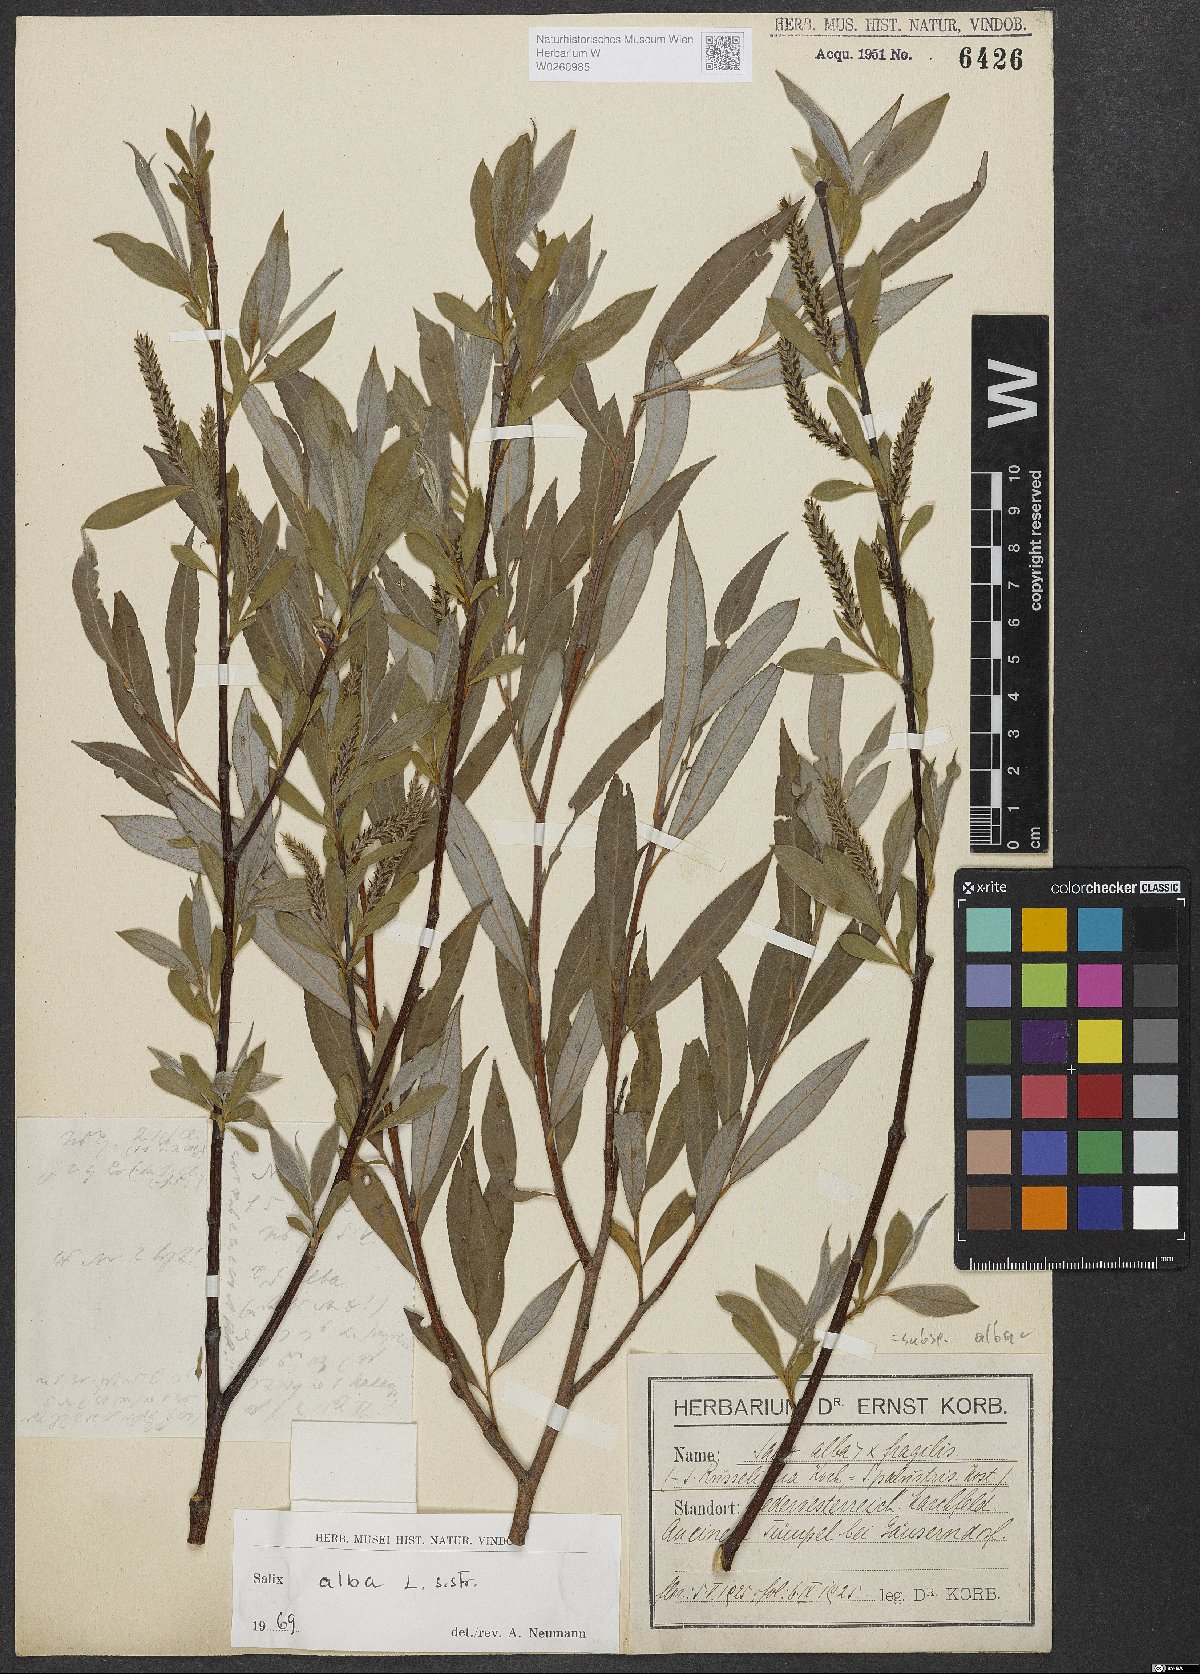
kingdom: Plantae
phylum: Tracheophyta
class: Magnoliopsida
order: Malpighiales
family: Salicaceae
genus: Salix
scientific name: Salix alba
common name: White willow
